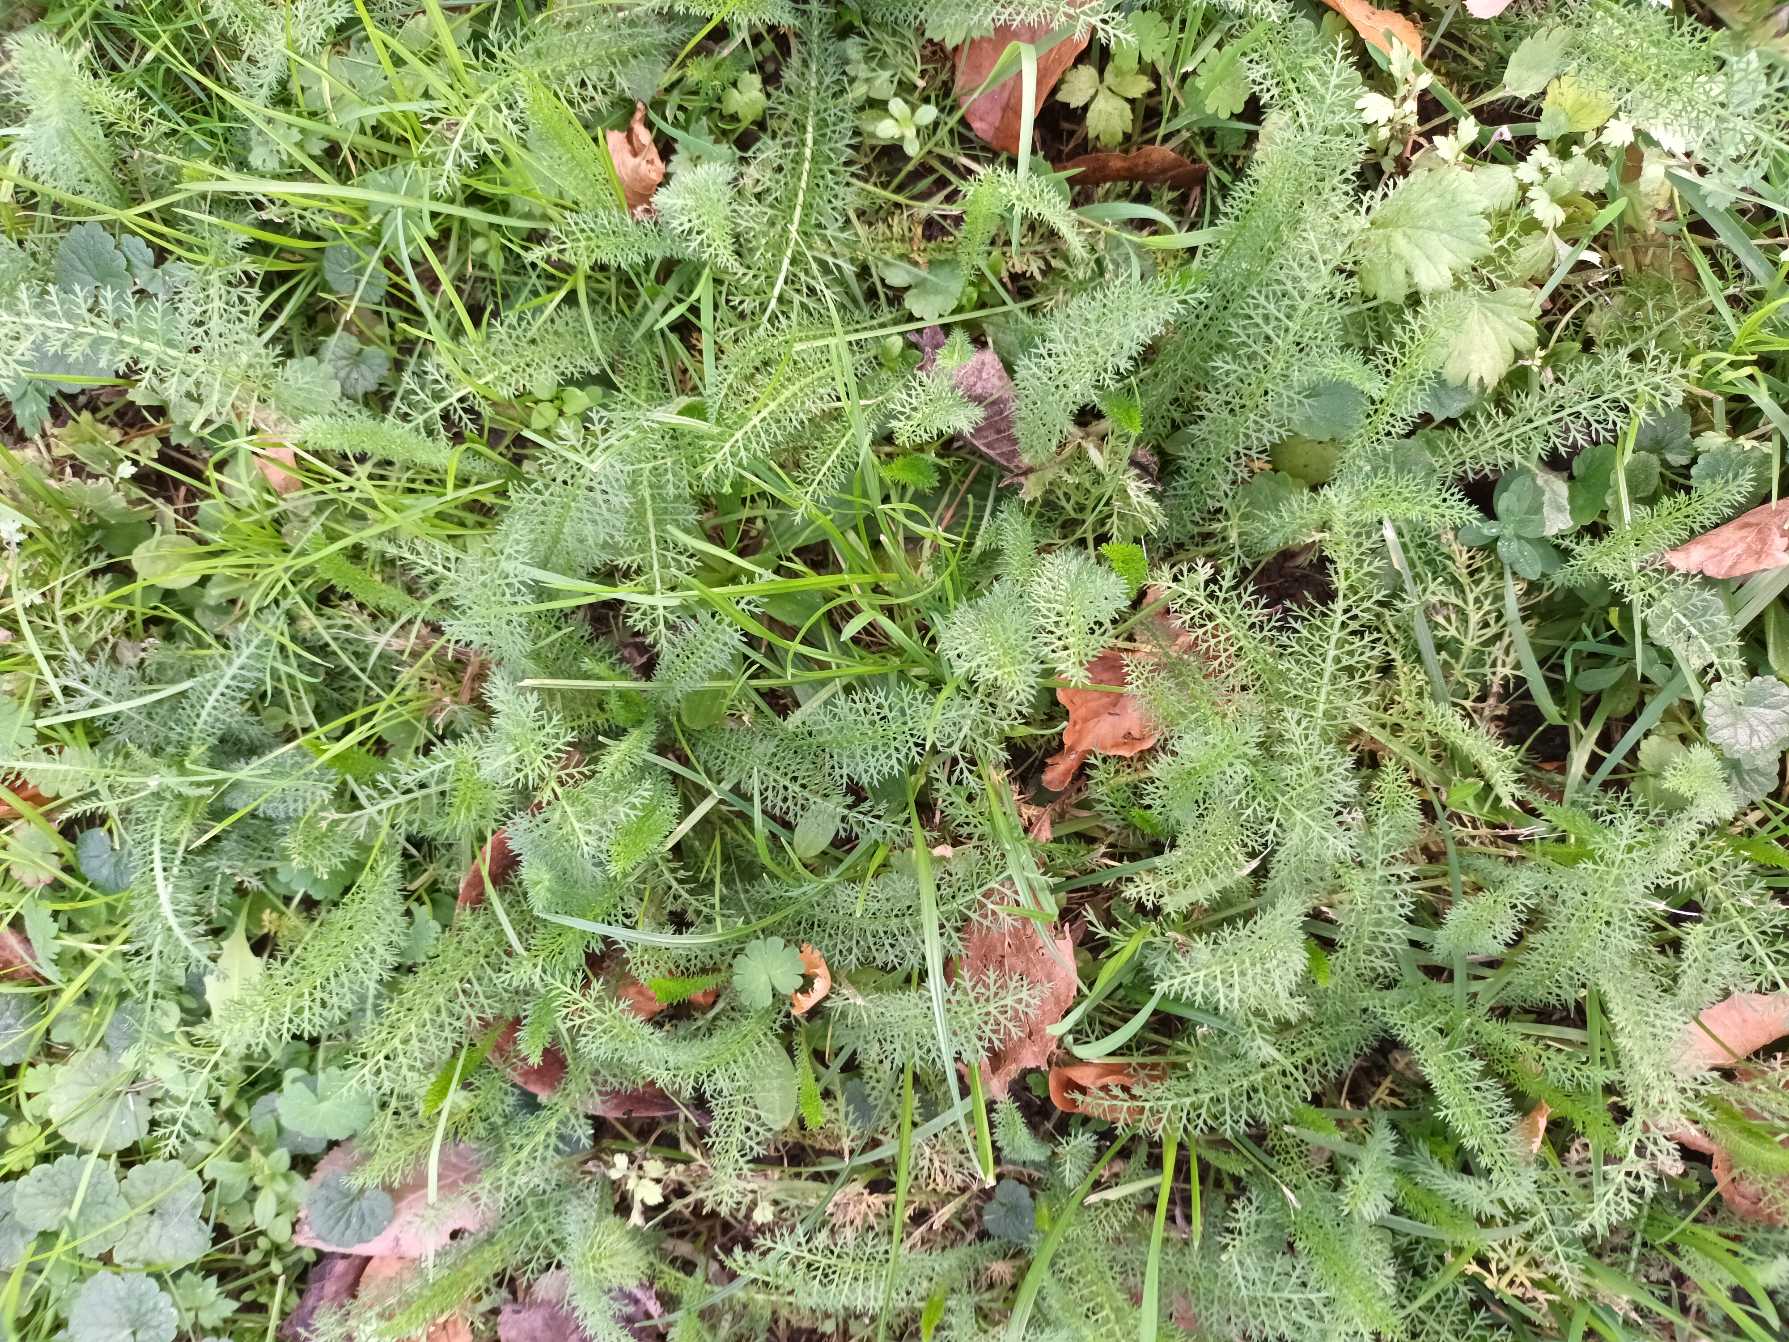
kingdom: Plantae
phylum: Tracheophyta
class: Magnoliopsida
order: Asterales
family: Asteraceae
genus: Achillea
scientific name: Achillea millefolium
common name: Almindelig røllike
